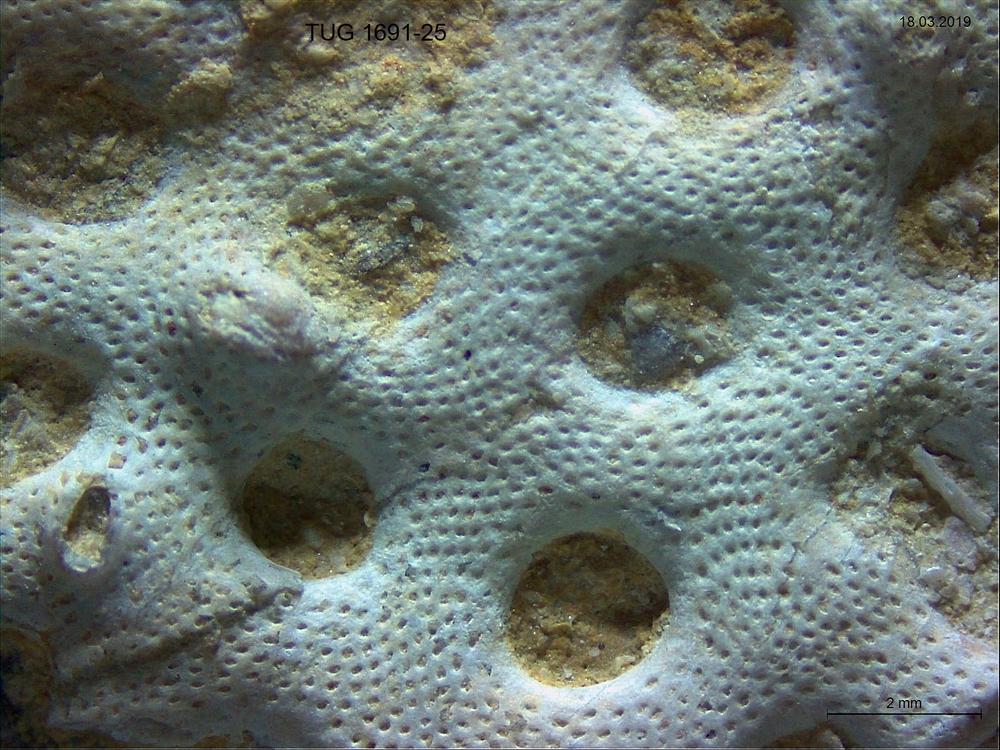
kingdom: Animalia
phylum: Bryozoa
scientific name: Bryozoa
